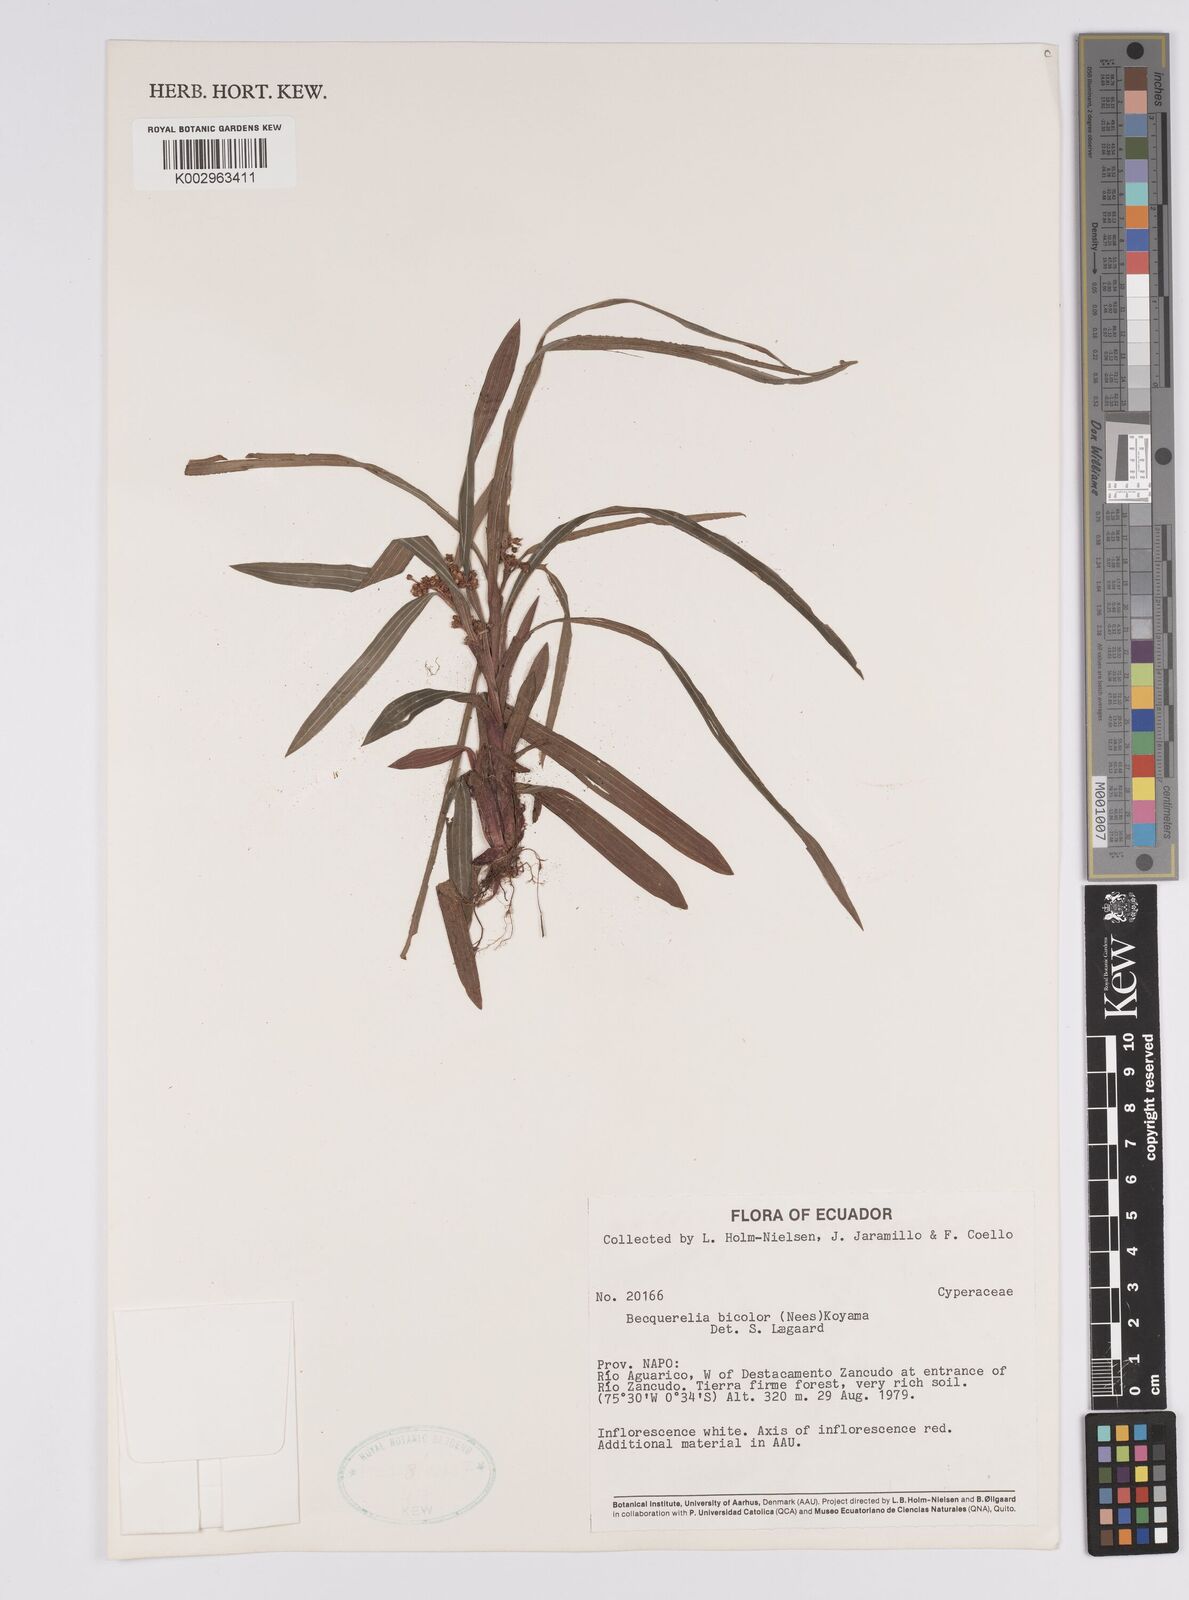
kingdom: Plantae
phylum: Tracheophyta
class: Liliopsida
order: Poales
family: Cyperaceae
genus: Becquerelia
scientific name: Becquerelia
